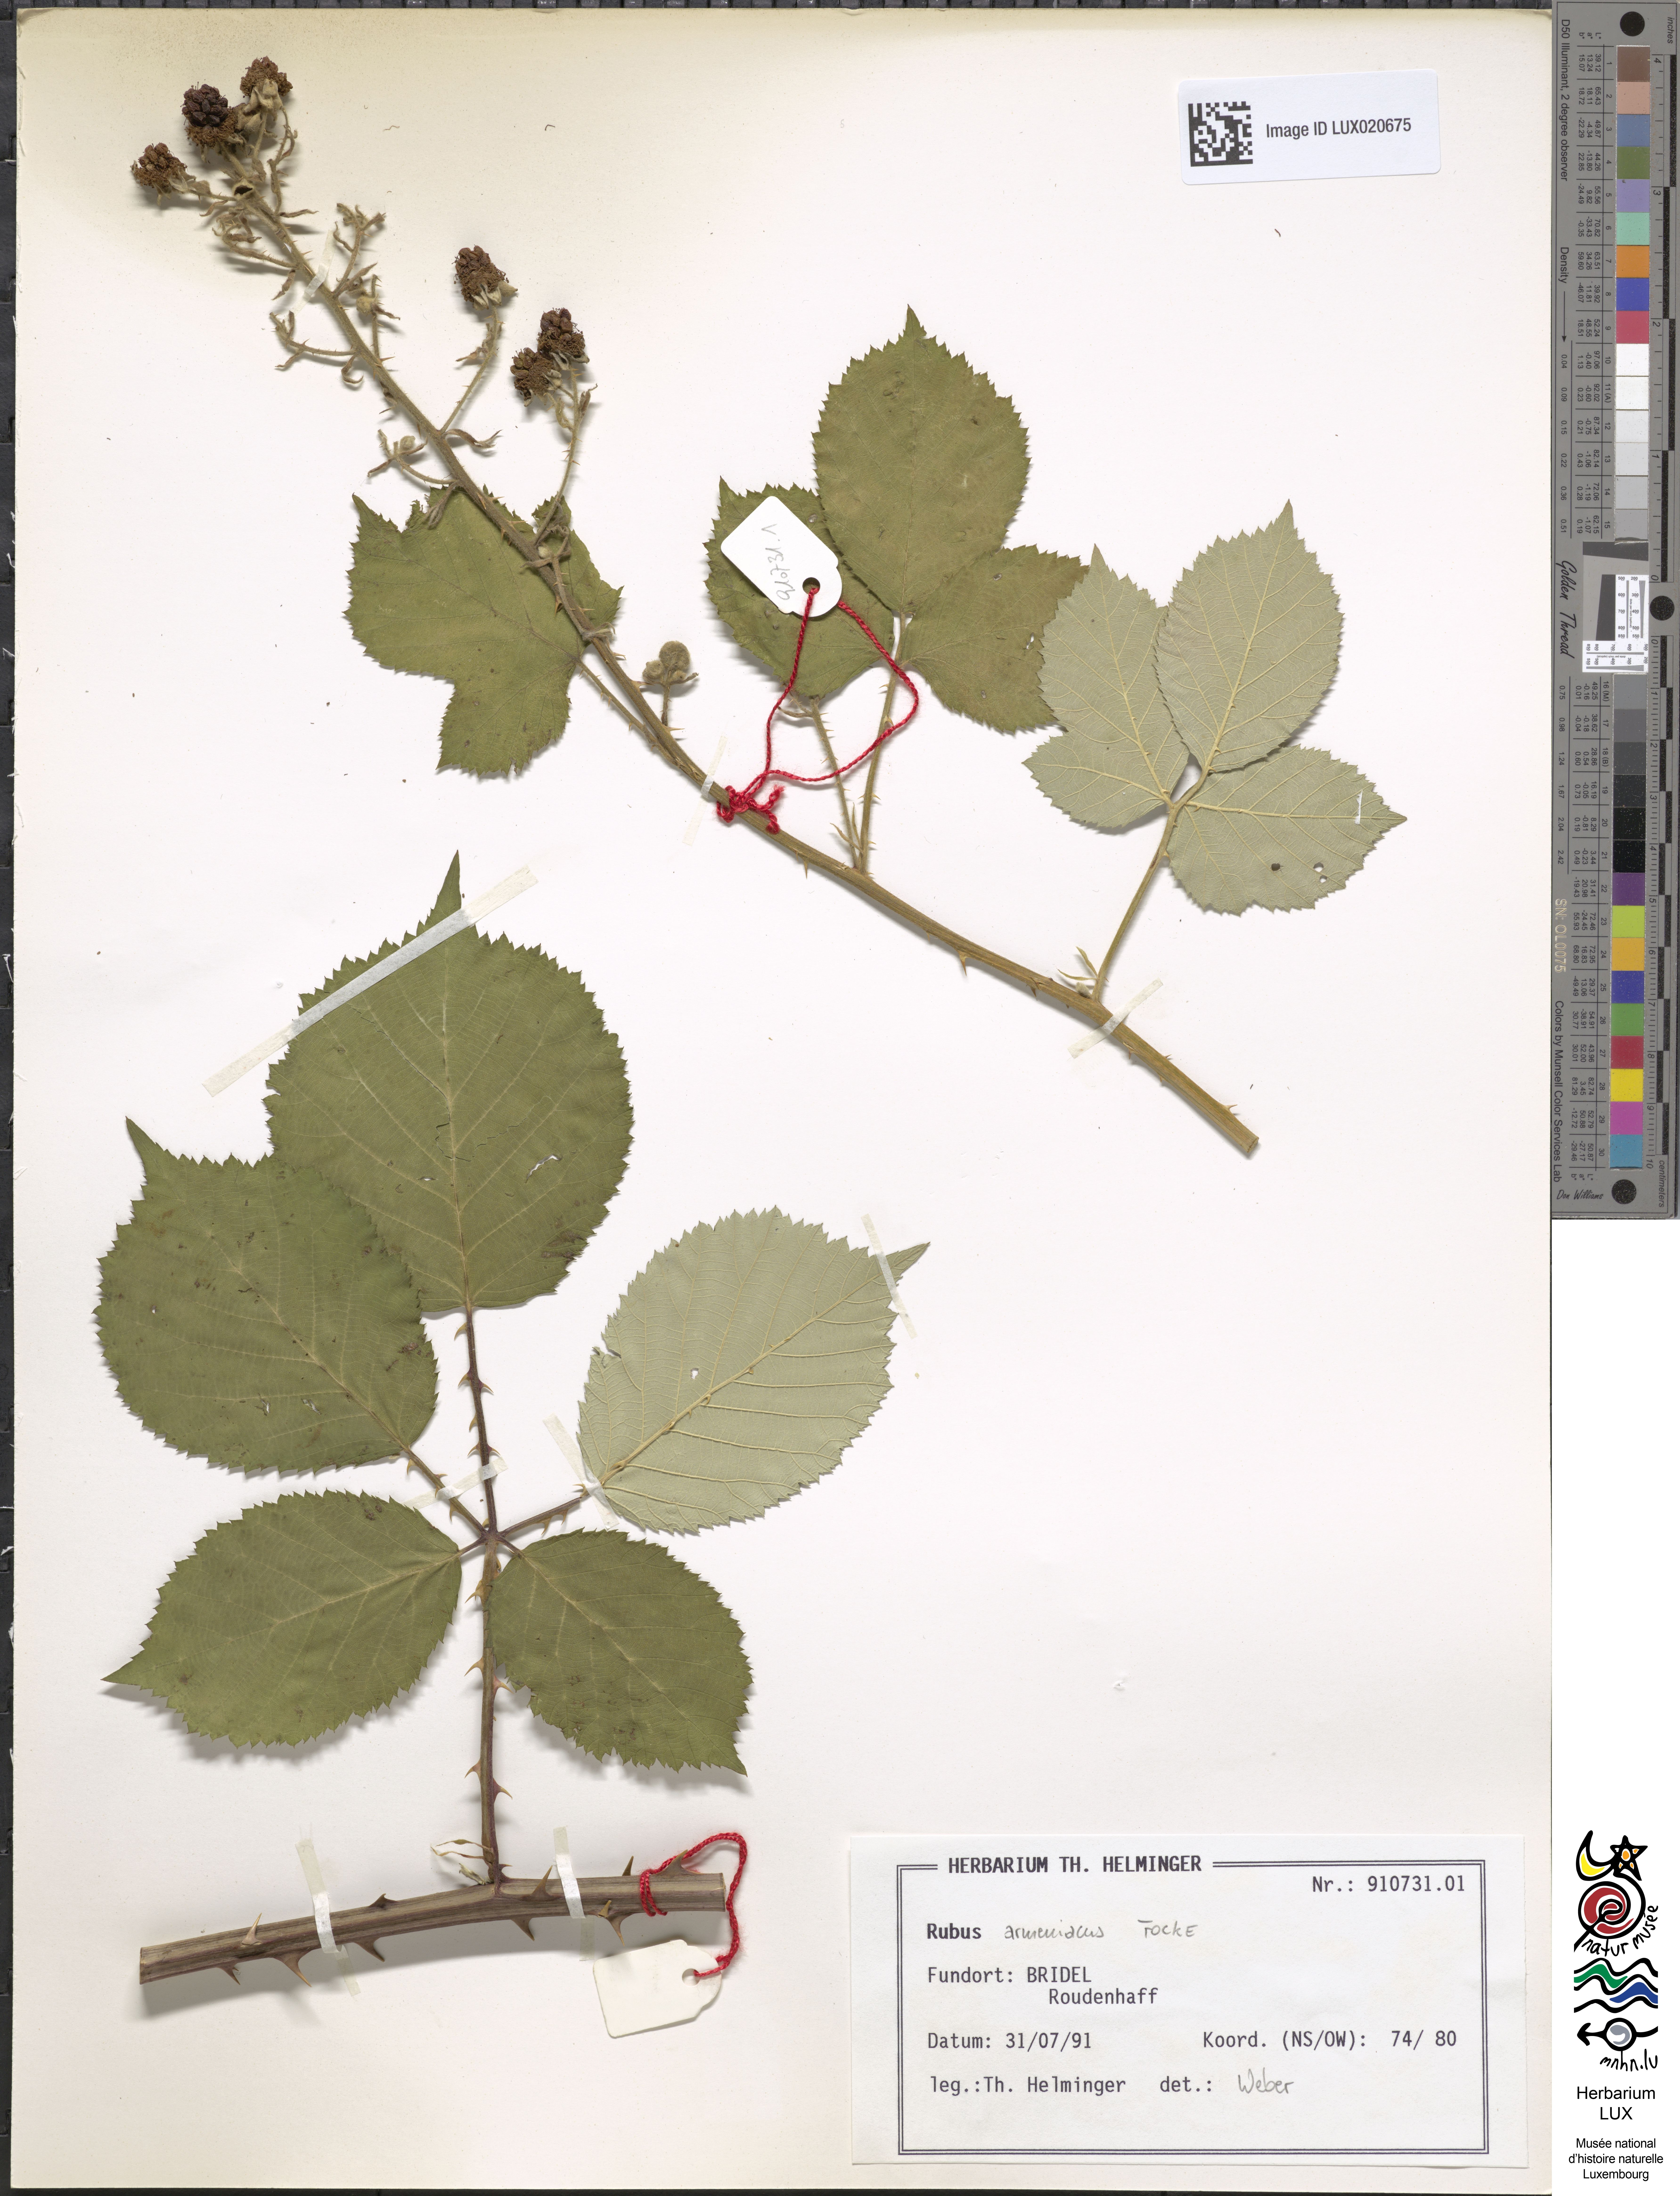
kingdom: Plantae
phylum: Tracheophyta
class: Magnoliopsida
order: Rosales
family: Rosaceae
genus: Rubus
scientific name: Rubus armeniacus
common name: Himalayan blackberry
